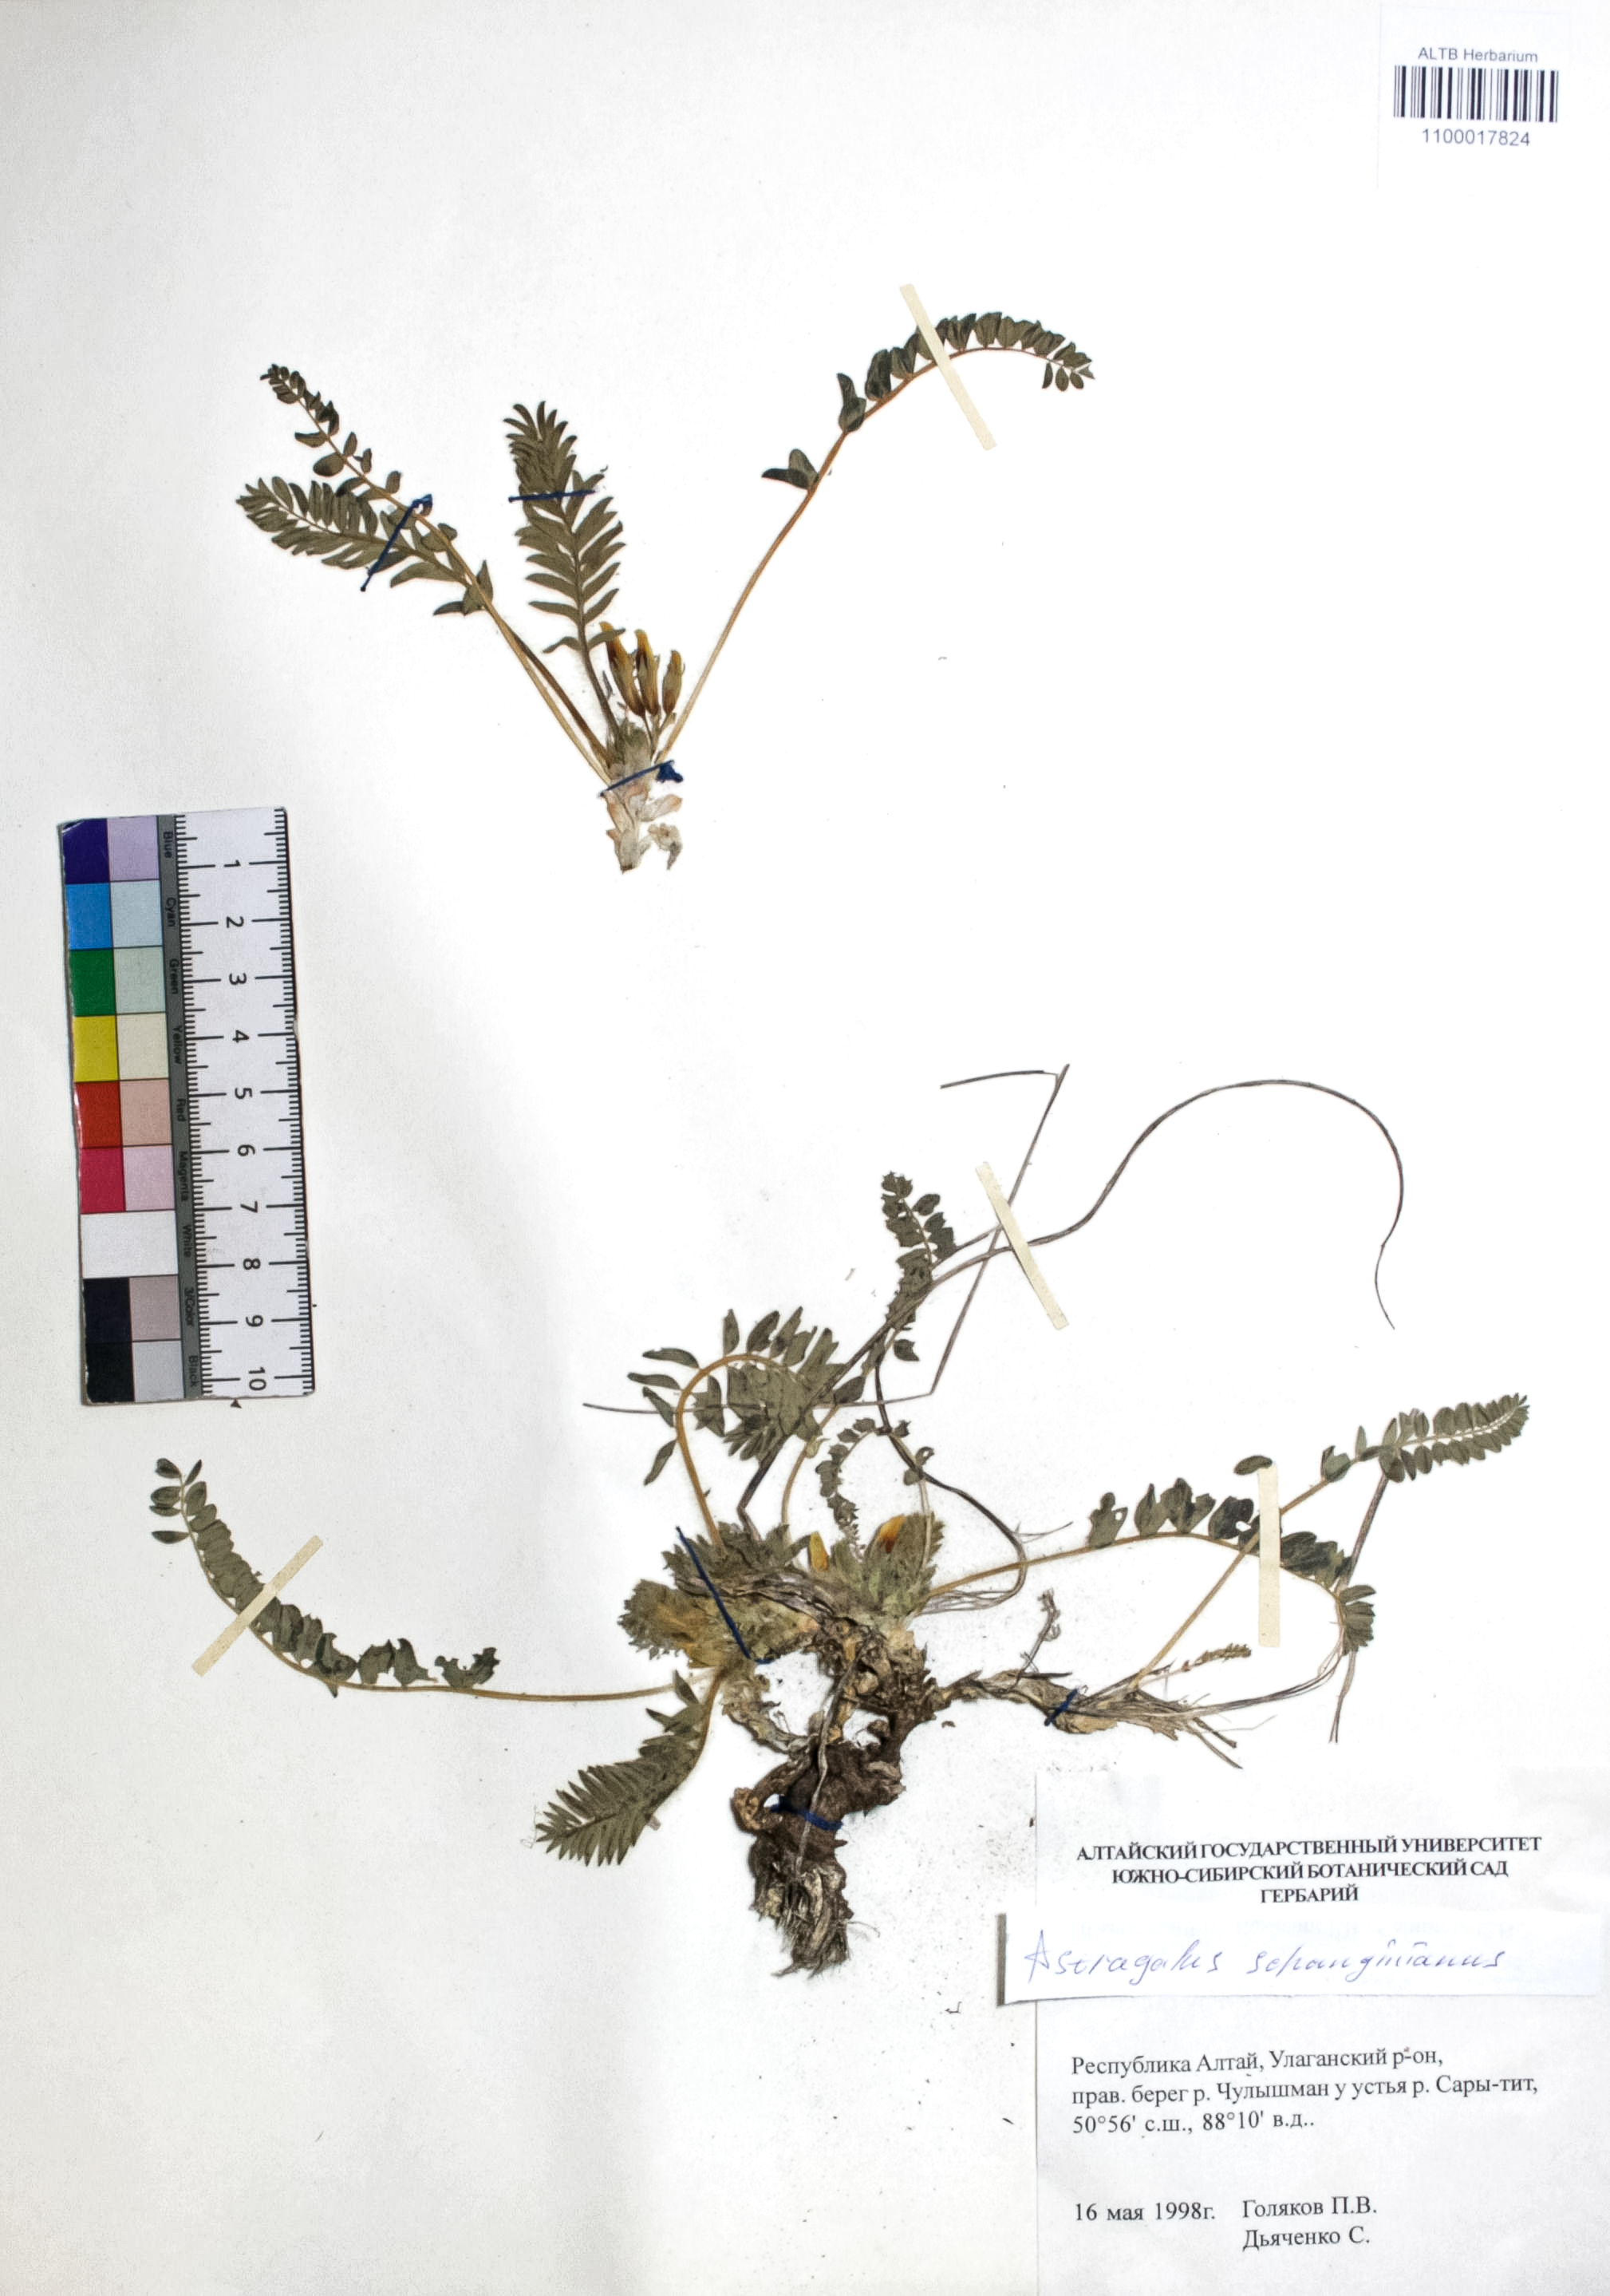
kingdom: Plantae
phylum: Tracheophyta
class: Magnoliopsida
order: Fabales
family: Fabaceae
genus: Astragalus
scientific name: Astragalus schanginianus
